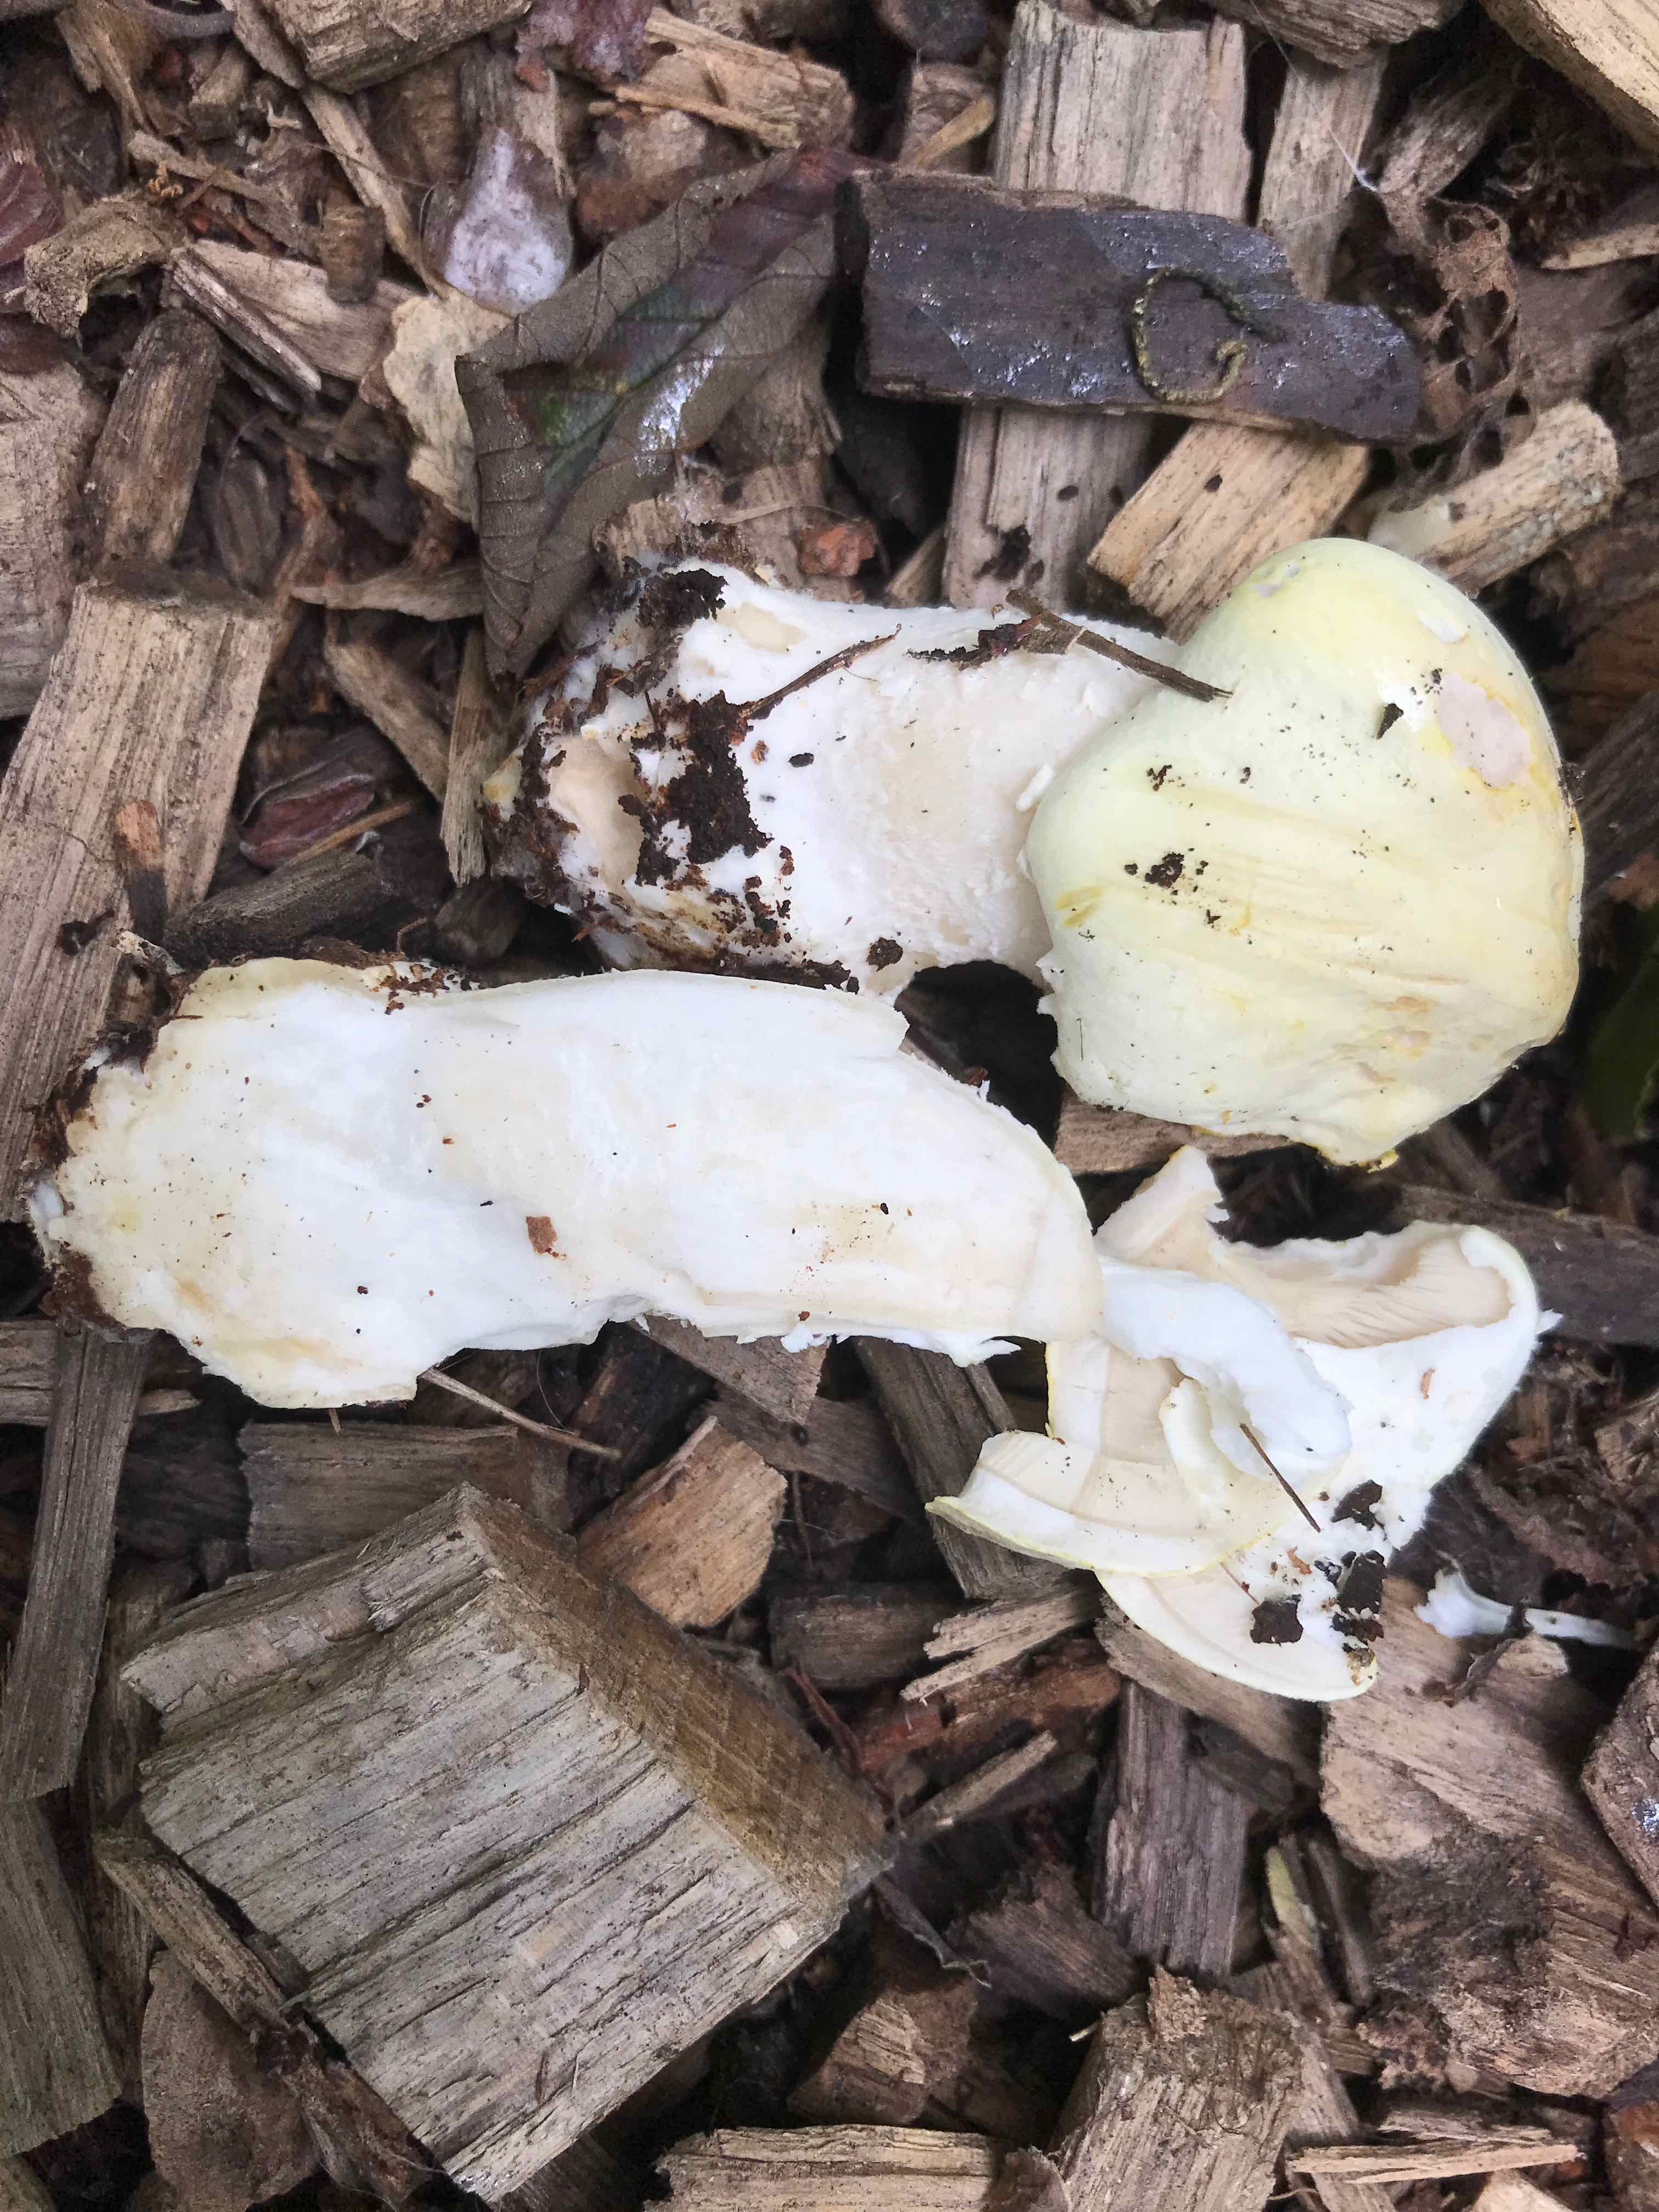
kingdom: Fungi
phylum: Basidiomycota
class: Agaricomycetes
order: Agaricales
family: Agaricaceae
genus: Agaricus
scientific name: Agaricus arvensis
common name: ager-champignon
